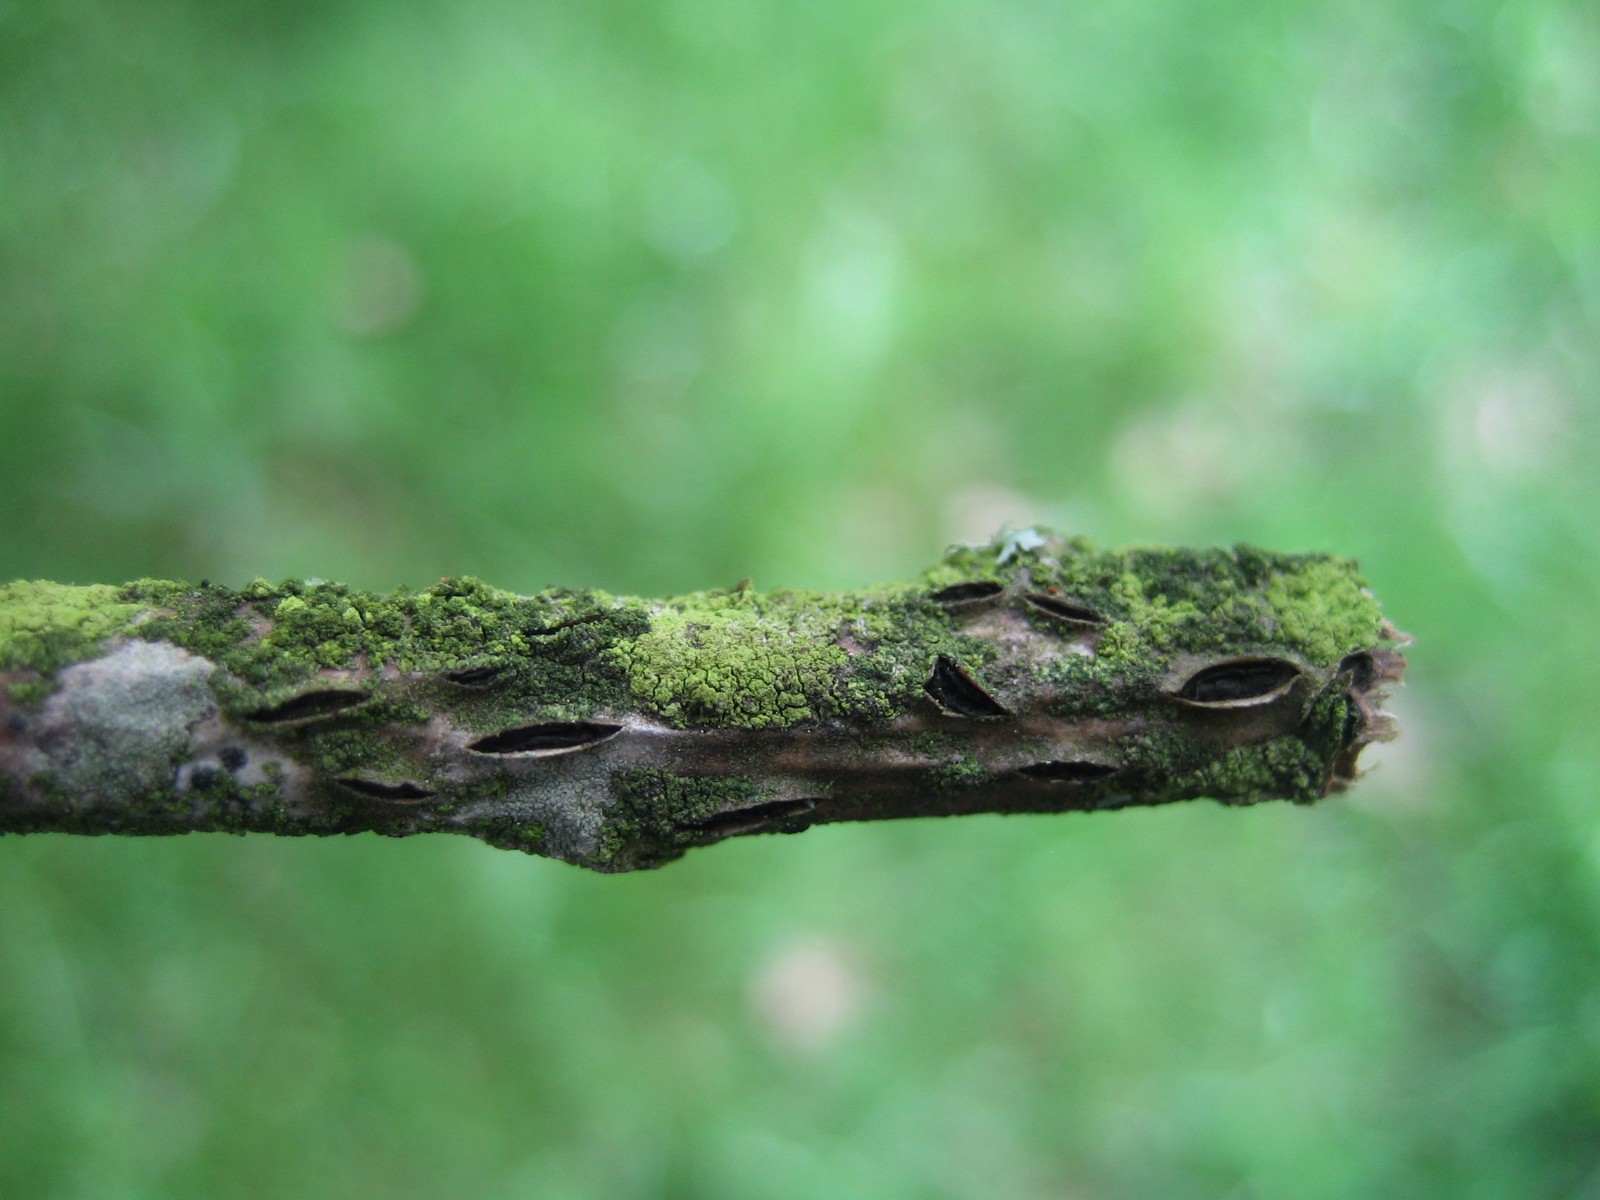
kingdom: Fungi
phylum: Ascomycota
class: Leotiomycetes
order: Rhytismatales
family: Rhytismataceae
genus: Colpoma
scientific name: Colpoma quercinum
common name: ege-sprækkeskive
